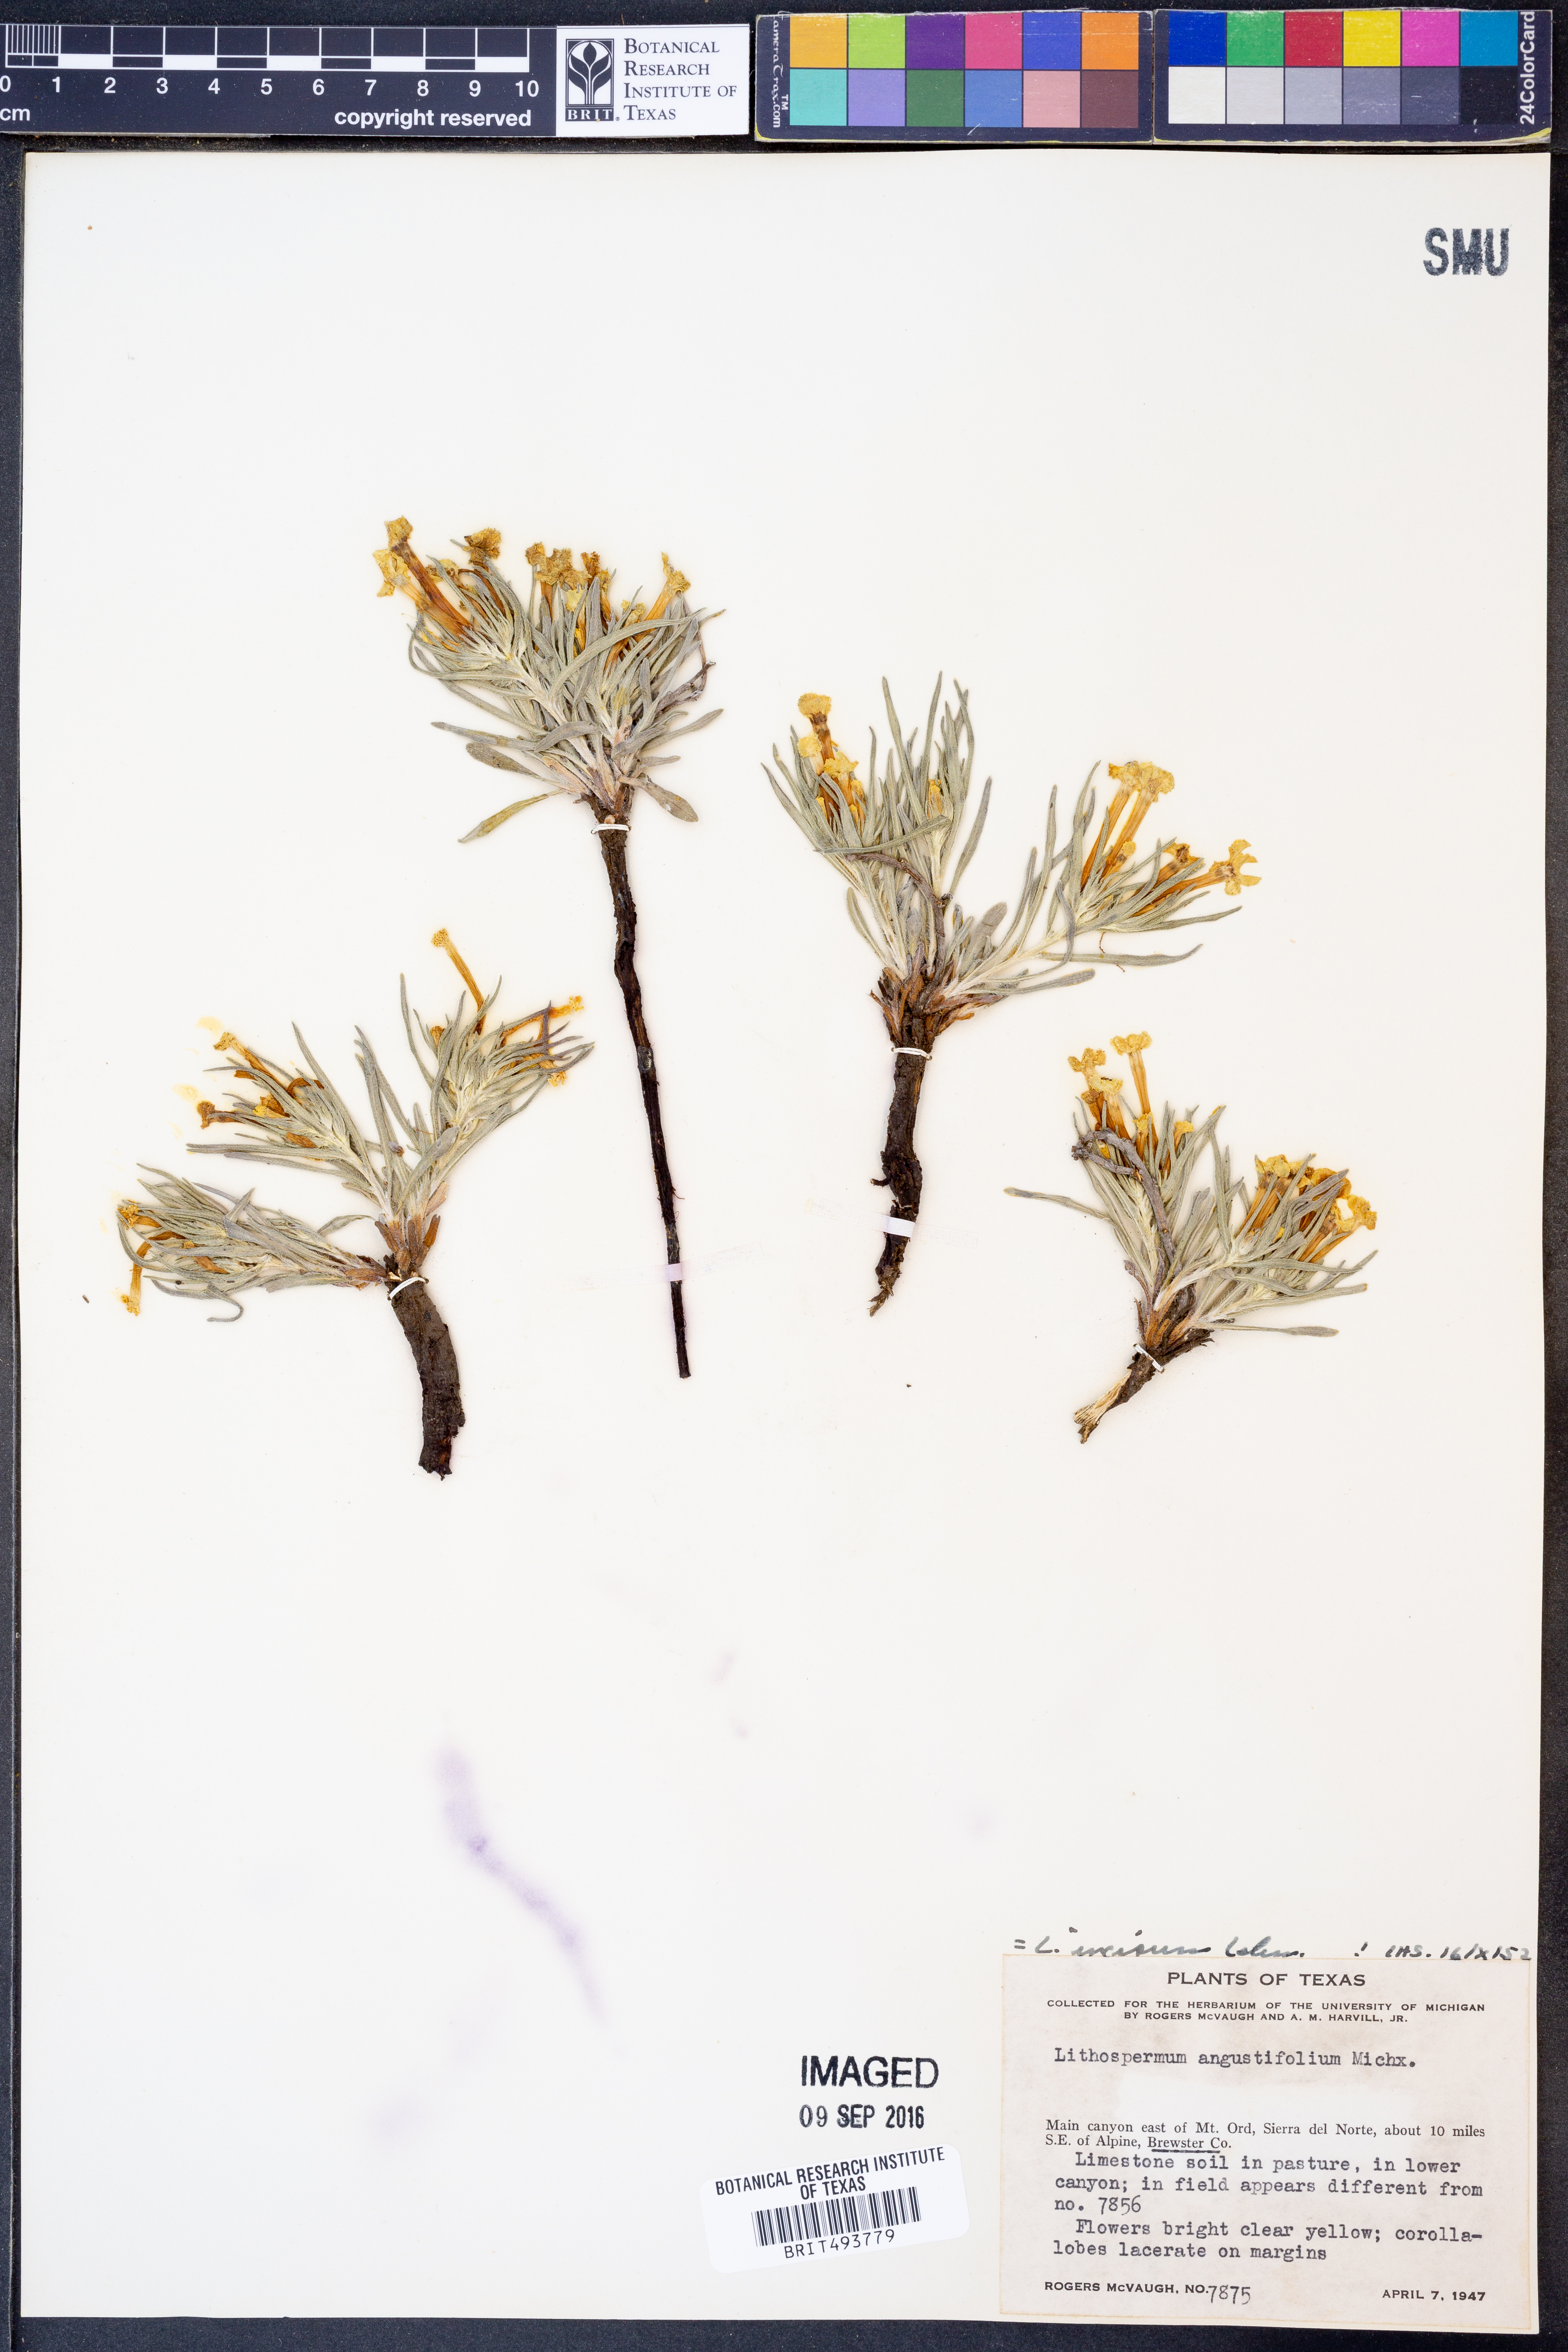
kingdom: Plantae
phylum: Tracheophyta
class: Magnoliopsida
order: Boraginales
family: Boraginaceae
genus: Lithospermum
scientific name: Lithospermum incisum
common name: Fringed gromwell
